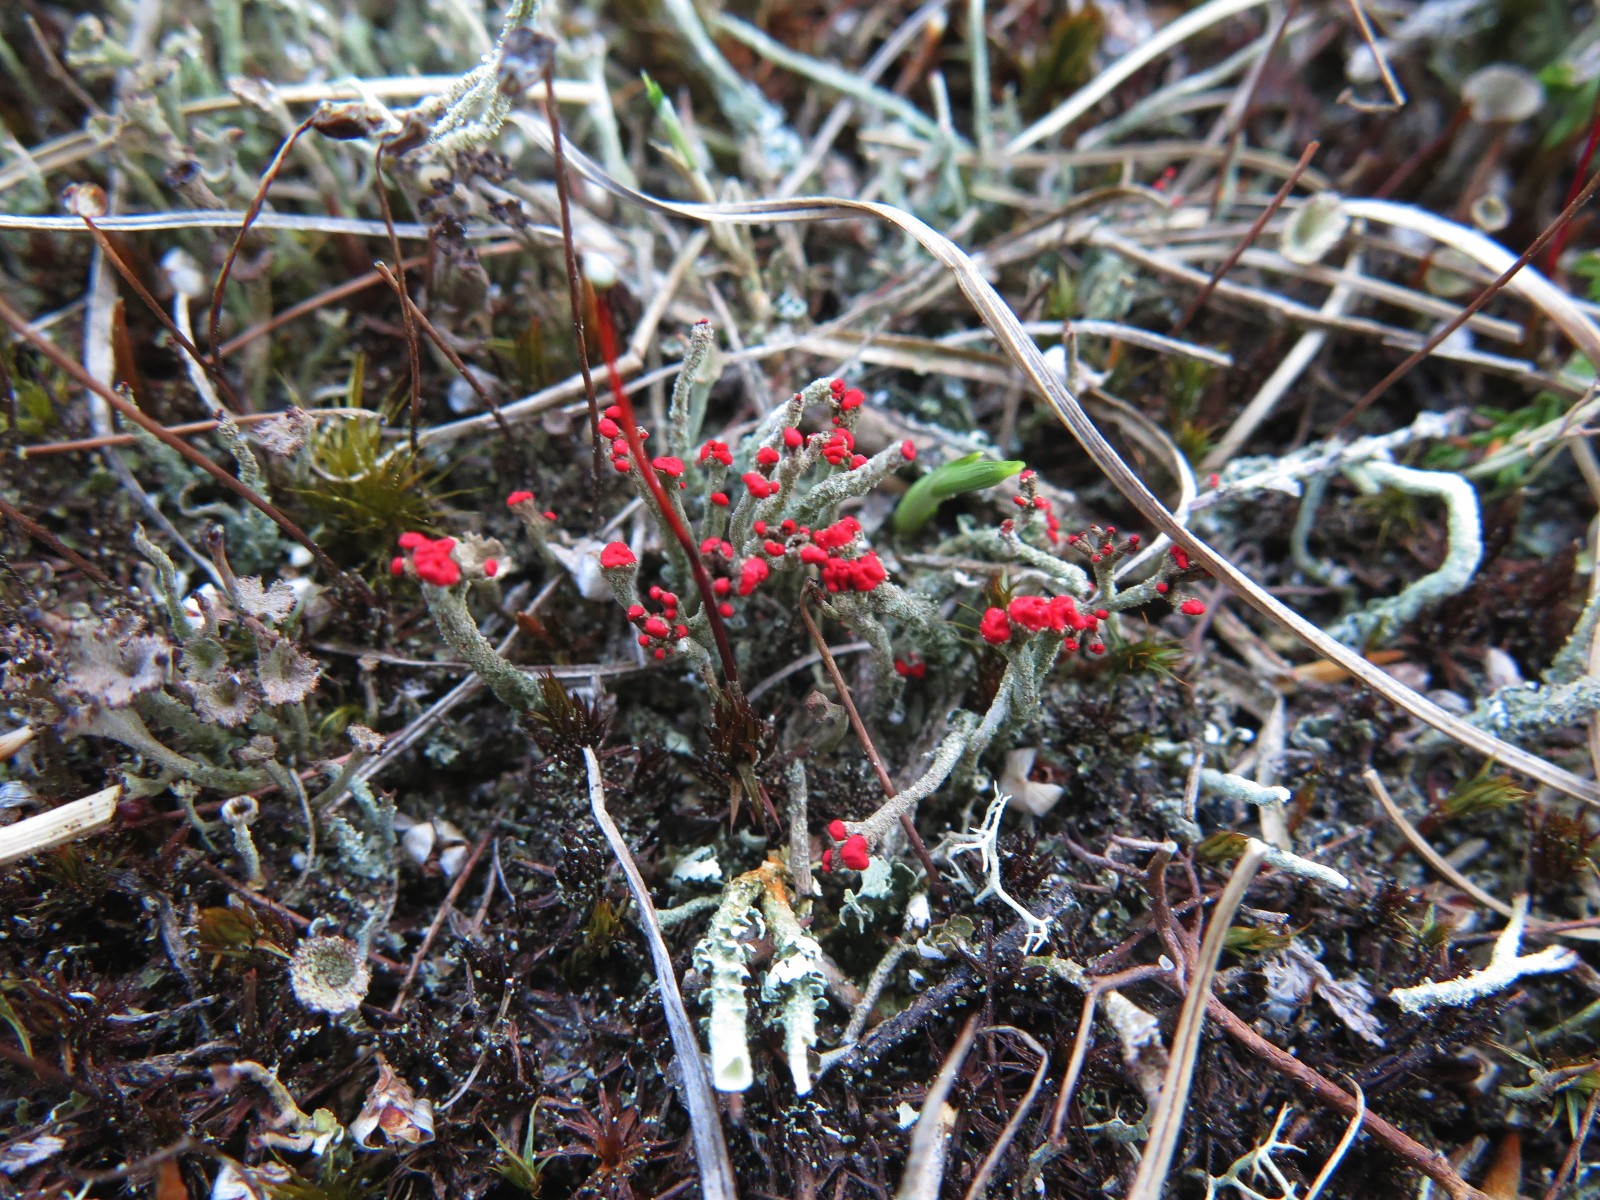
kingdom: Fungi
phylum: Ascomycota
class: Lecanoromycetes
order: Lecanorales
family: Cladoniaceae
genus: Cladonia
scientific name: Cladonia floerkeana
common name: lakrød bægerlav
